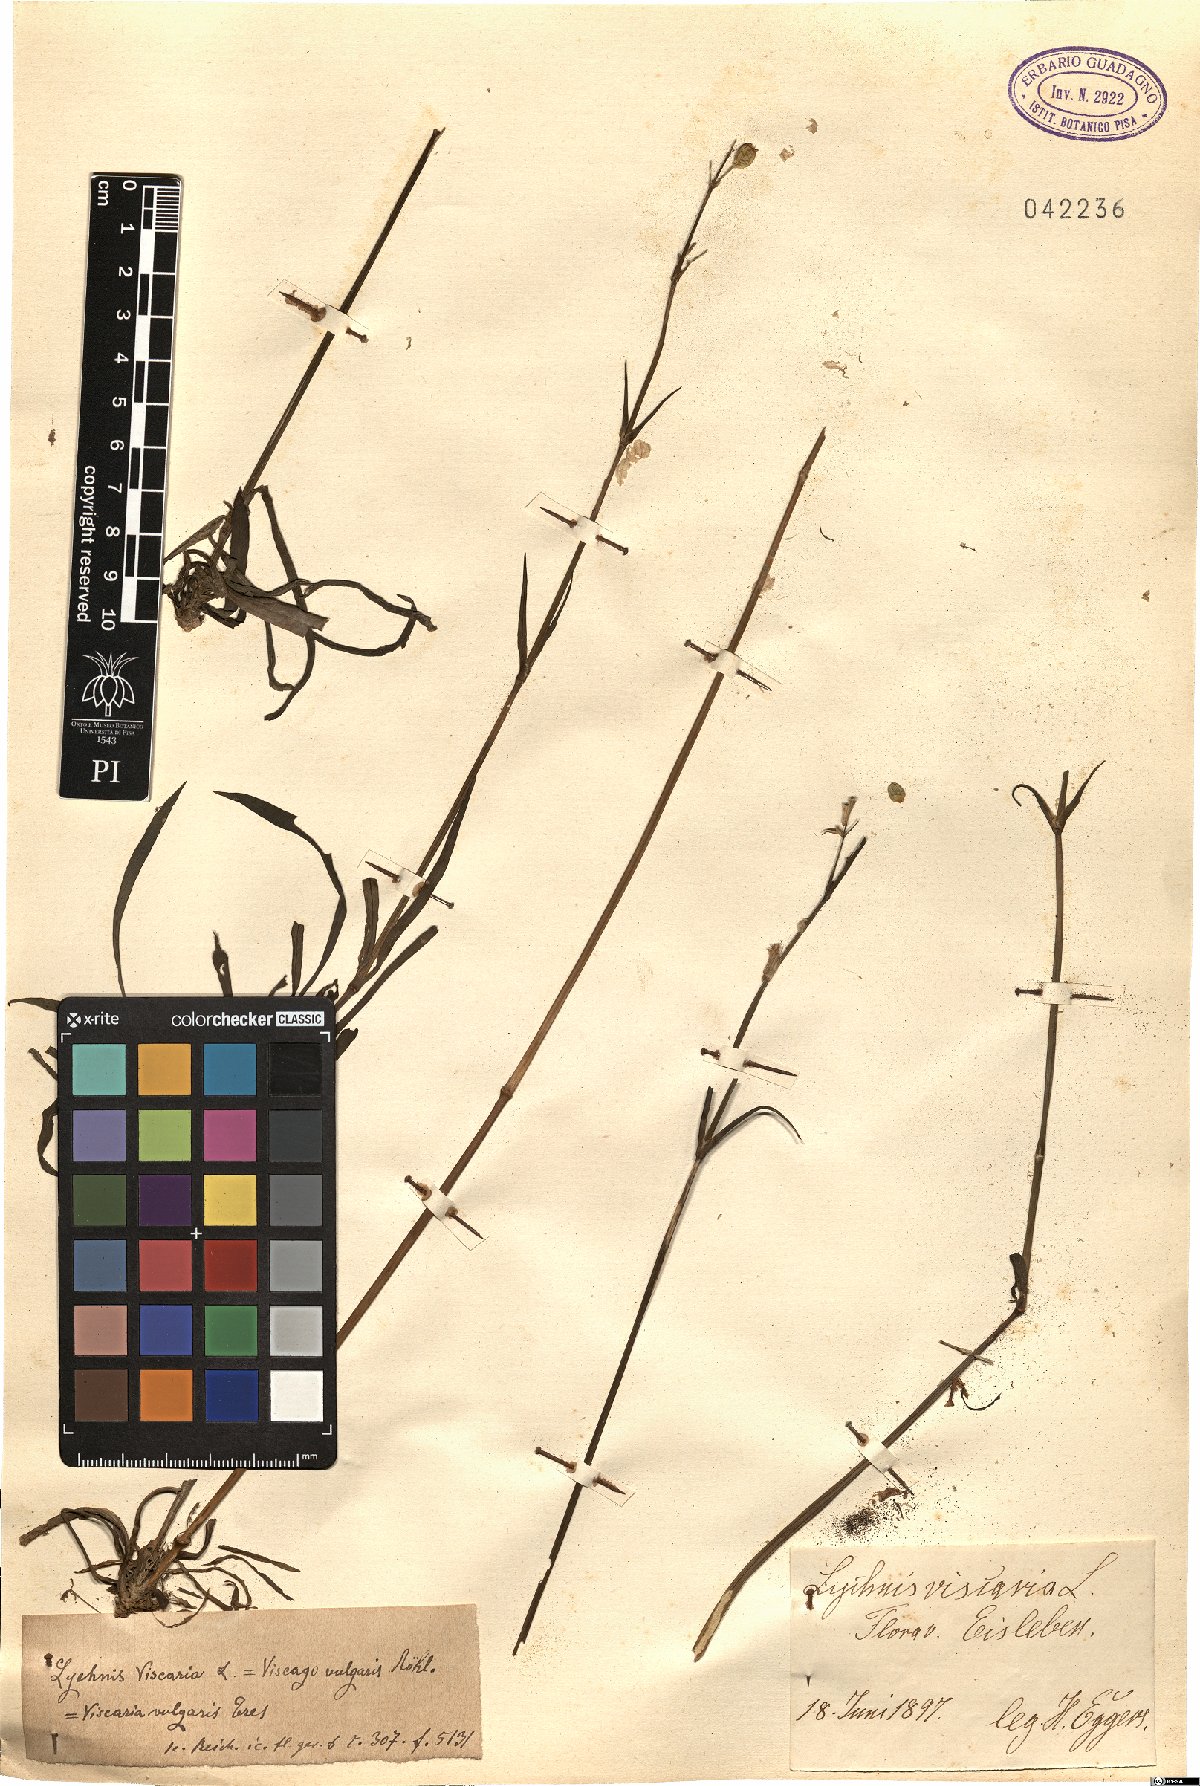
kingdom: Plantae
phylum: Tracheophyta
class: Magnoliopsida
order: Caryophyllales
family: Caryophyllaceae
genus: Viscaria
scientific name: Viscaria vulgaris
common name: Clammy campion
